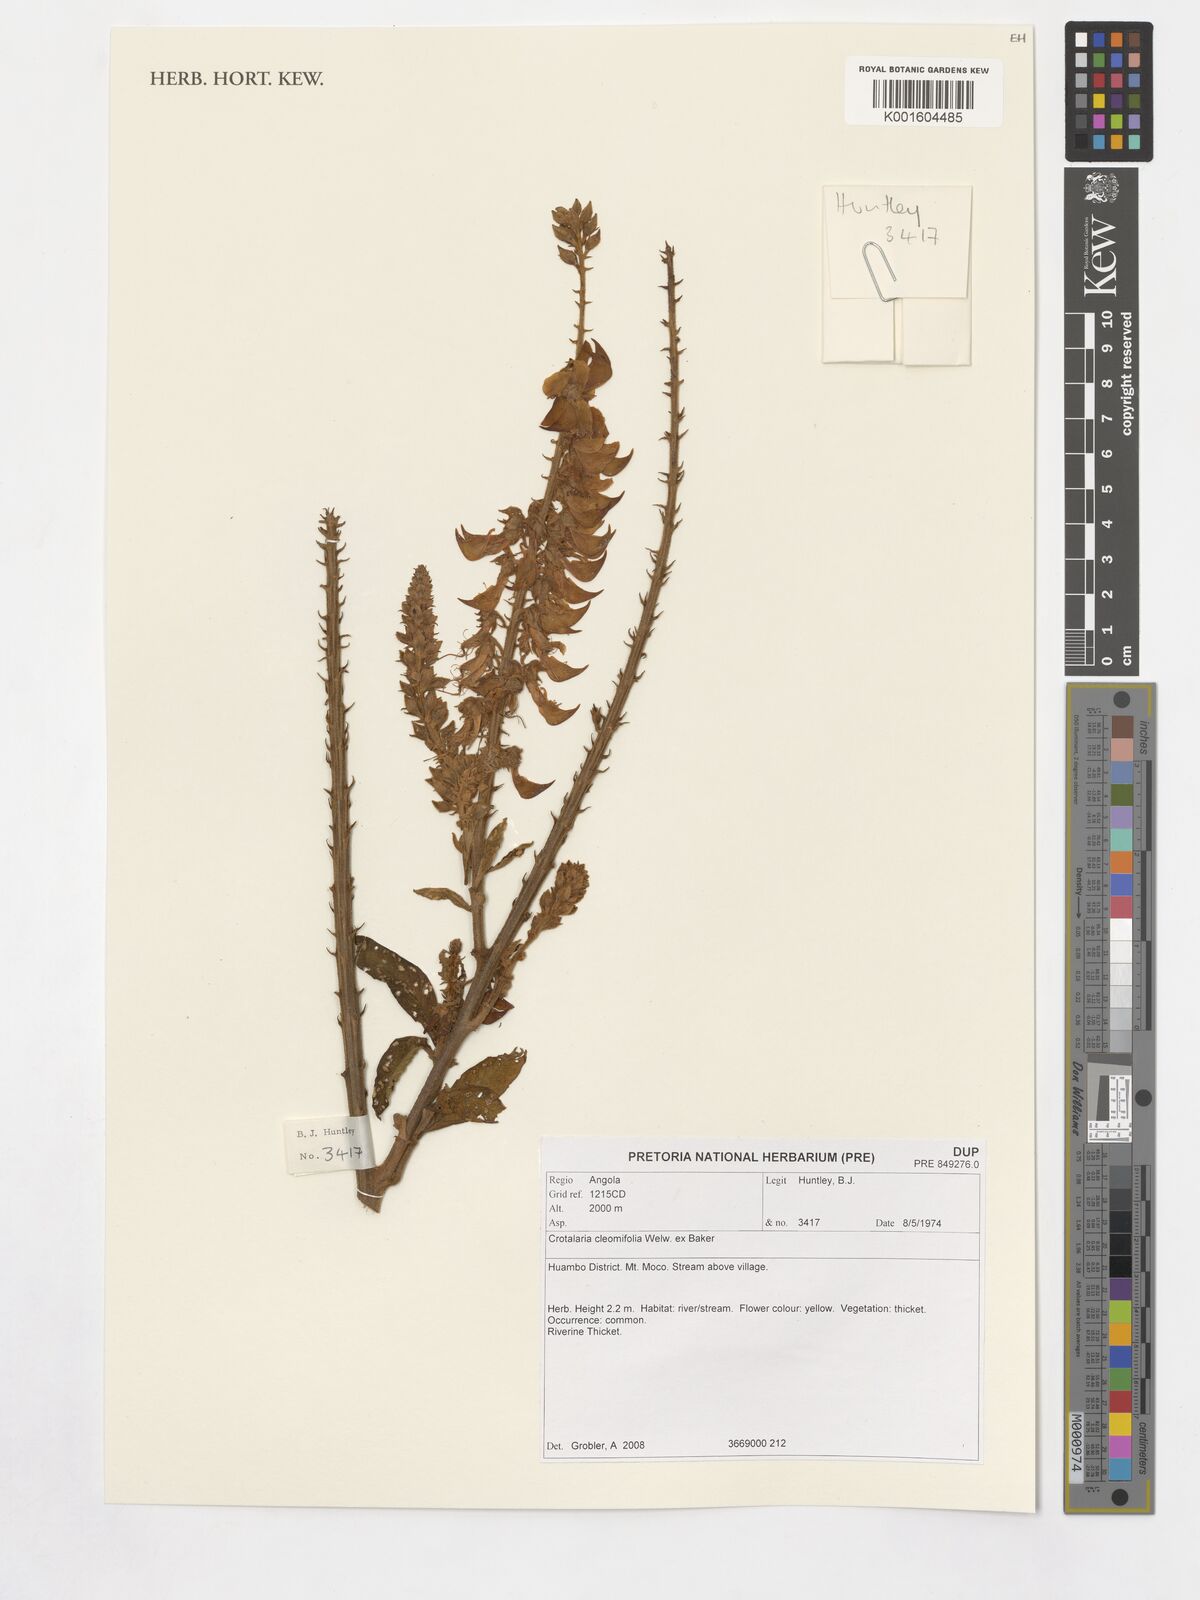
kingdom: Plantae
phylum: Tracheophyta
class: Magnoliopsida
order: Fabales
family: Fabaceae
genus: Crotalaria
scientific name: Crotalaria cleomifolia
